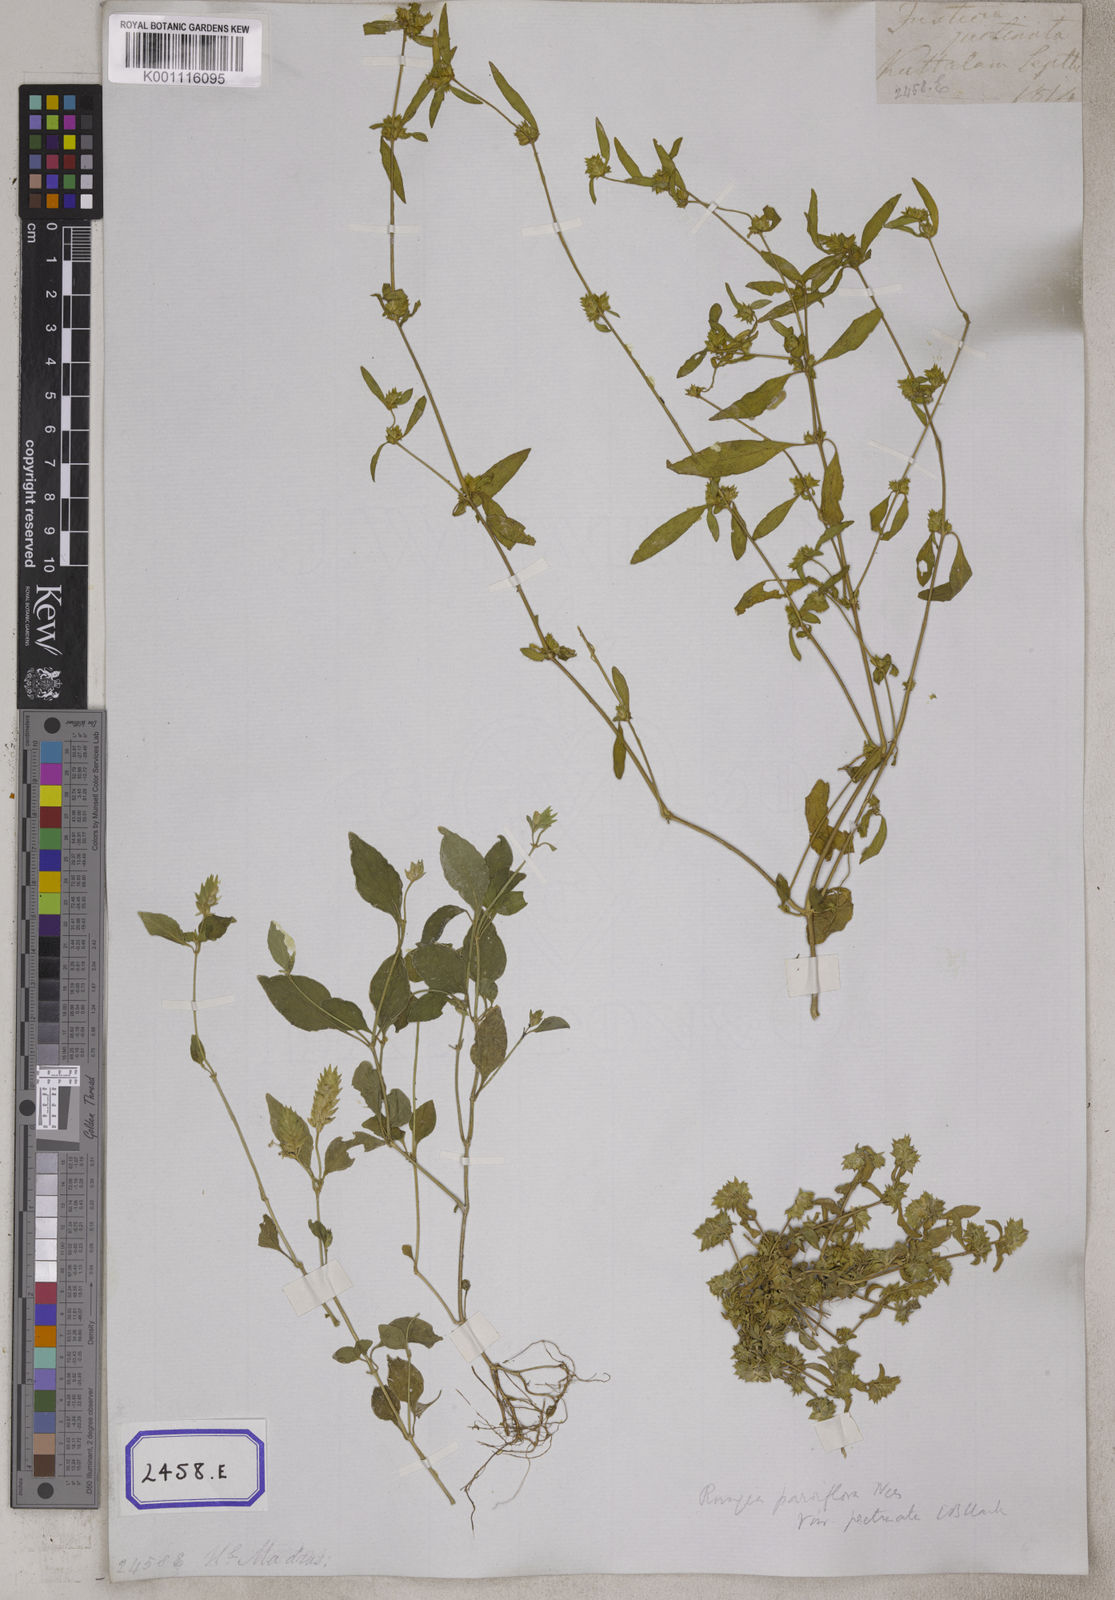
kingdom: Plantae
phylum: Tracheophyta
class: Magnoliopsida
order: Lamiales
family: Acanthaceae
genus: Rungia
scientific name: Rungia pectinata
